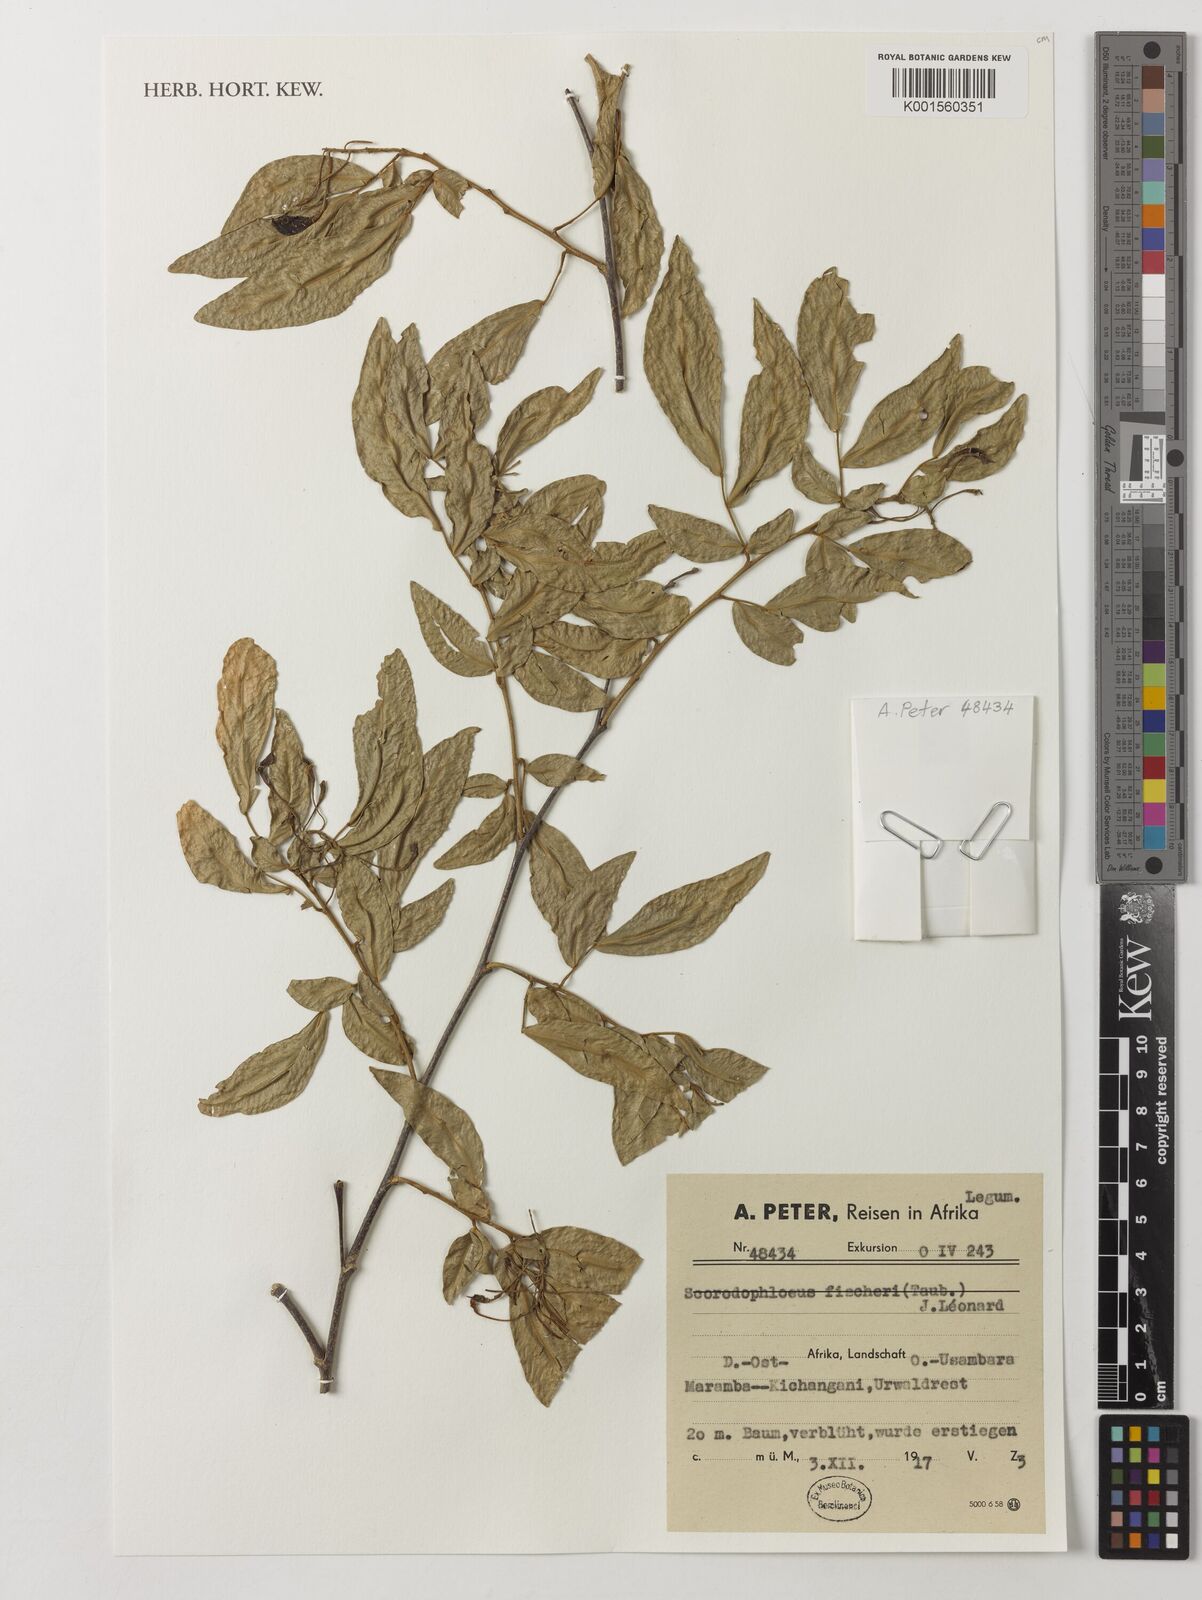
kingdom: Plantae
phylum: Tracheophyta
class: Magnoliopsida
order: Fabales
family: Fabaceae
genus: Scorodophloeus
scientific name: Scorodophloeus fischeri
